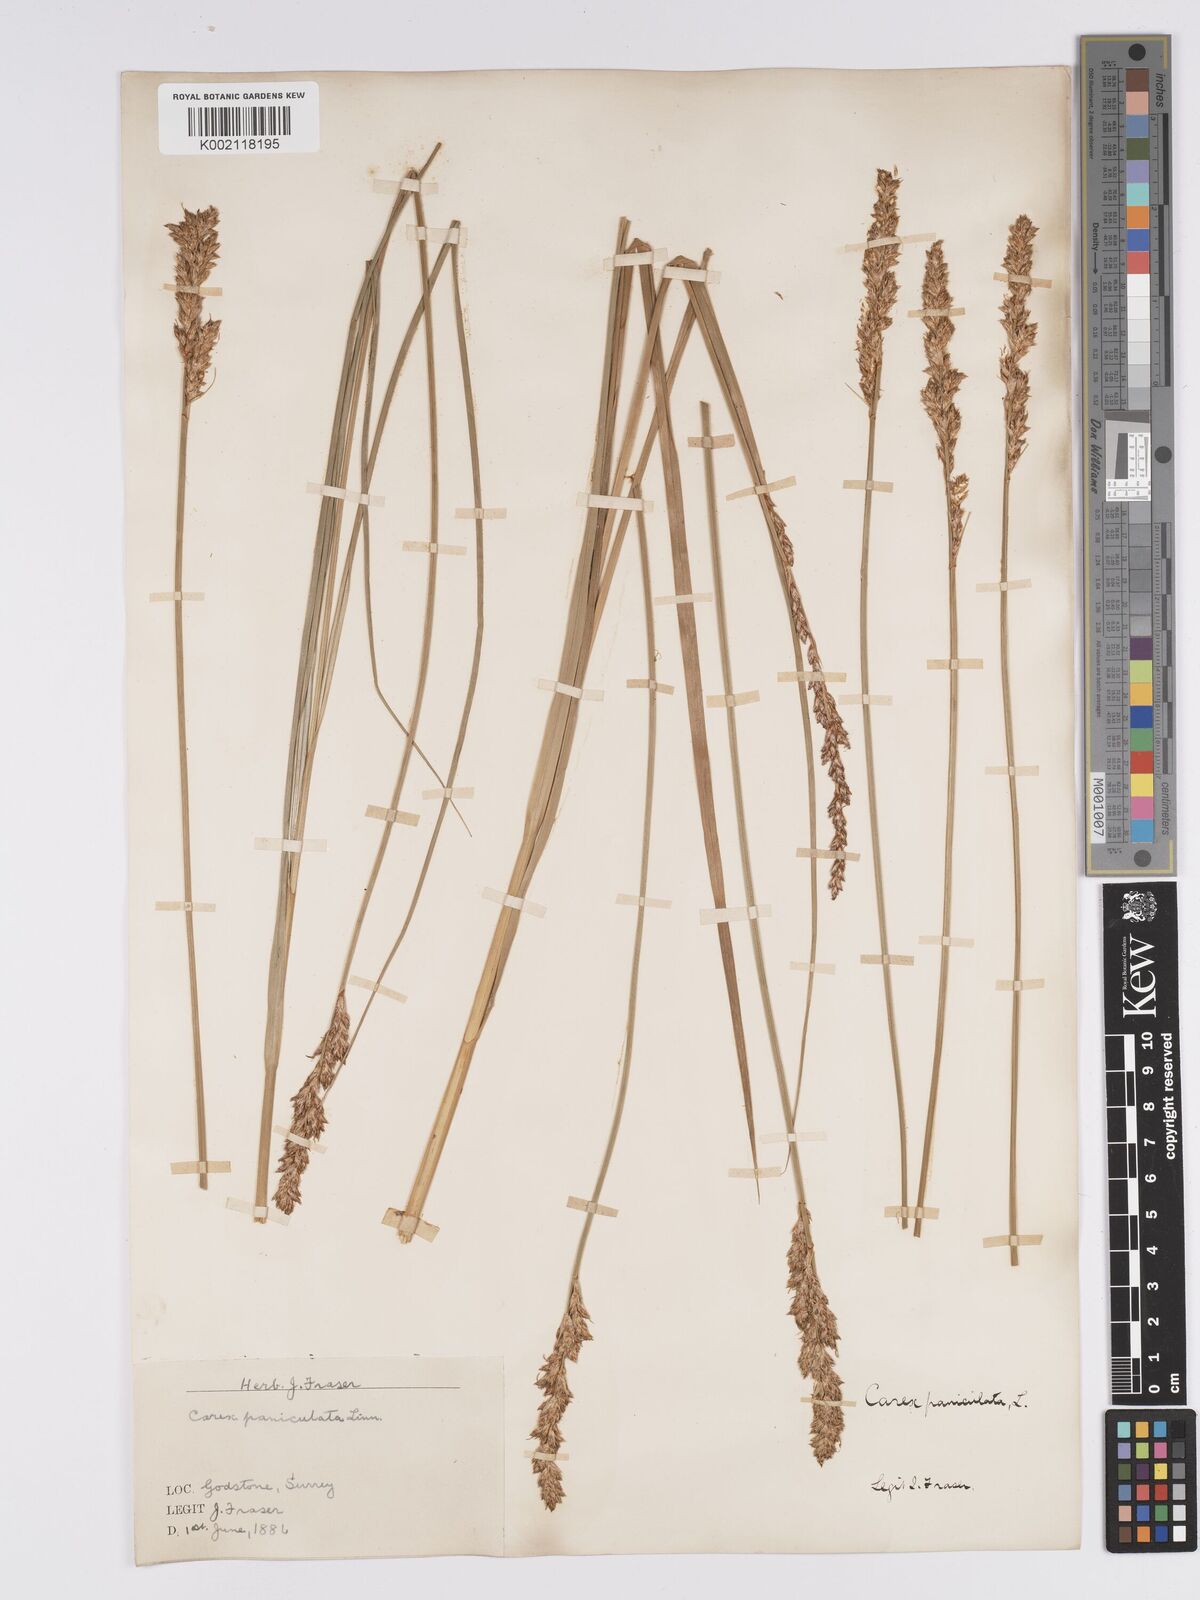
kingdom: Plantae
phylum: Tracheophyta
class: Liliopsida
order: Poales
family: Cyperaceae
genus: Carex
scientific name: Carex paniculata
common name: Greater tussock-sedge
